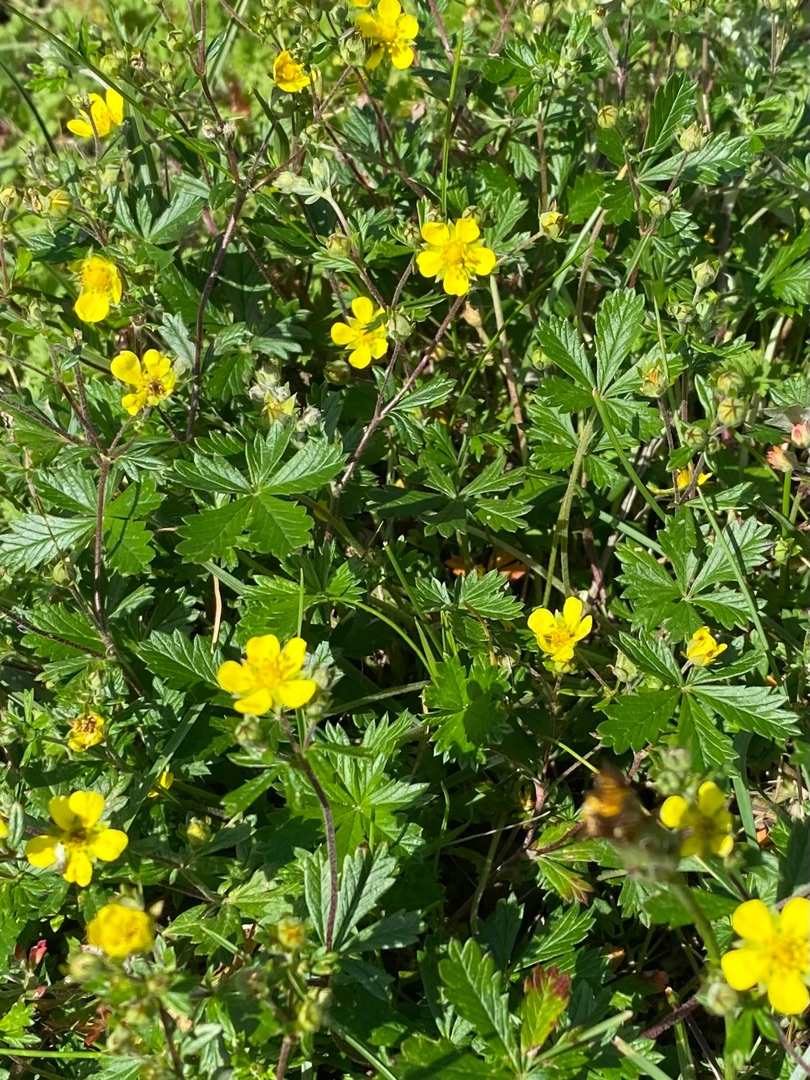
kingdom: Plantae
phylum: Tracheophyta
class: Magnoliopsida
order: Rosales
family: Rosaceae
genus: Potentilla
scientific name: Potentilla reptans
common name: Krybende potentil
